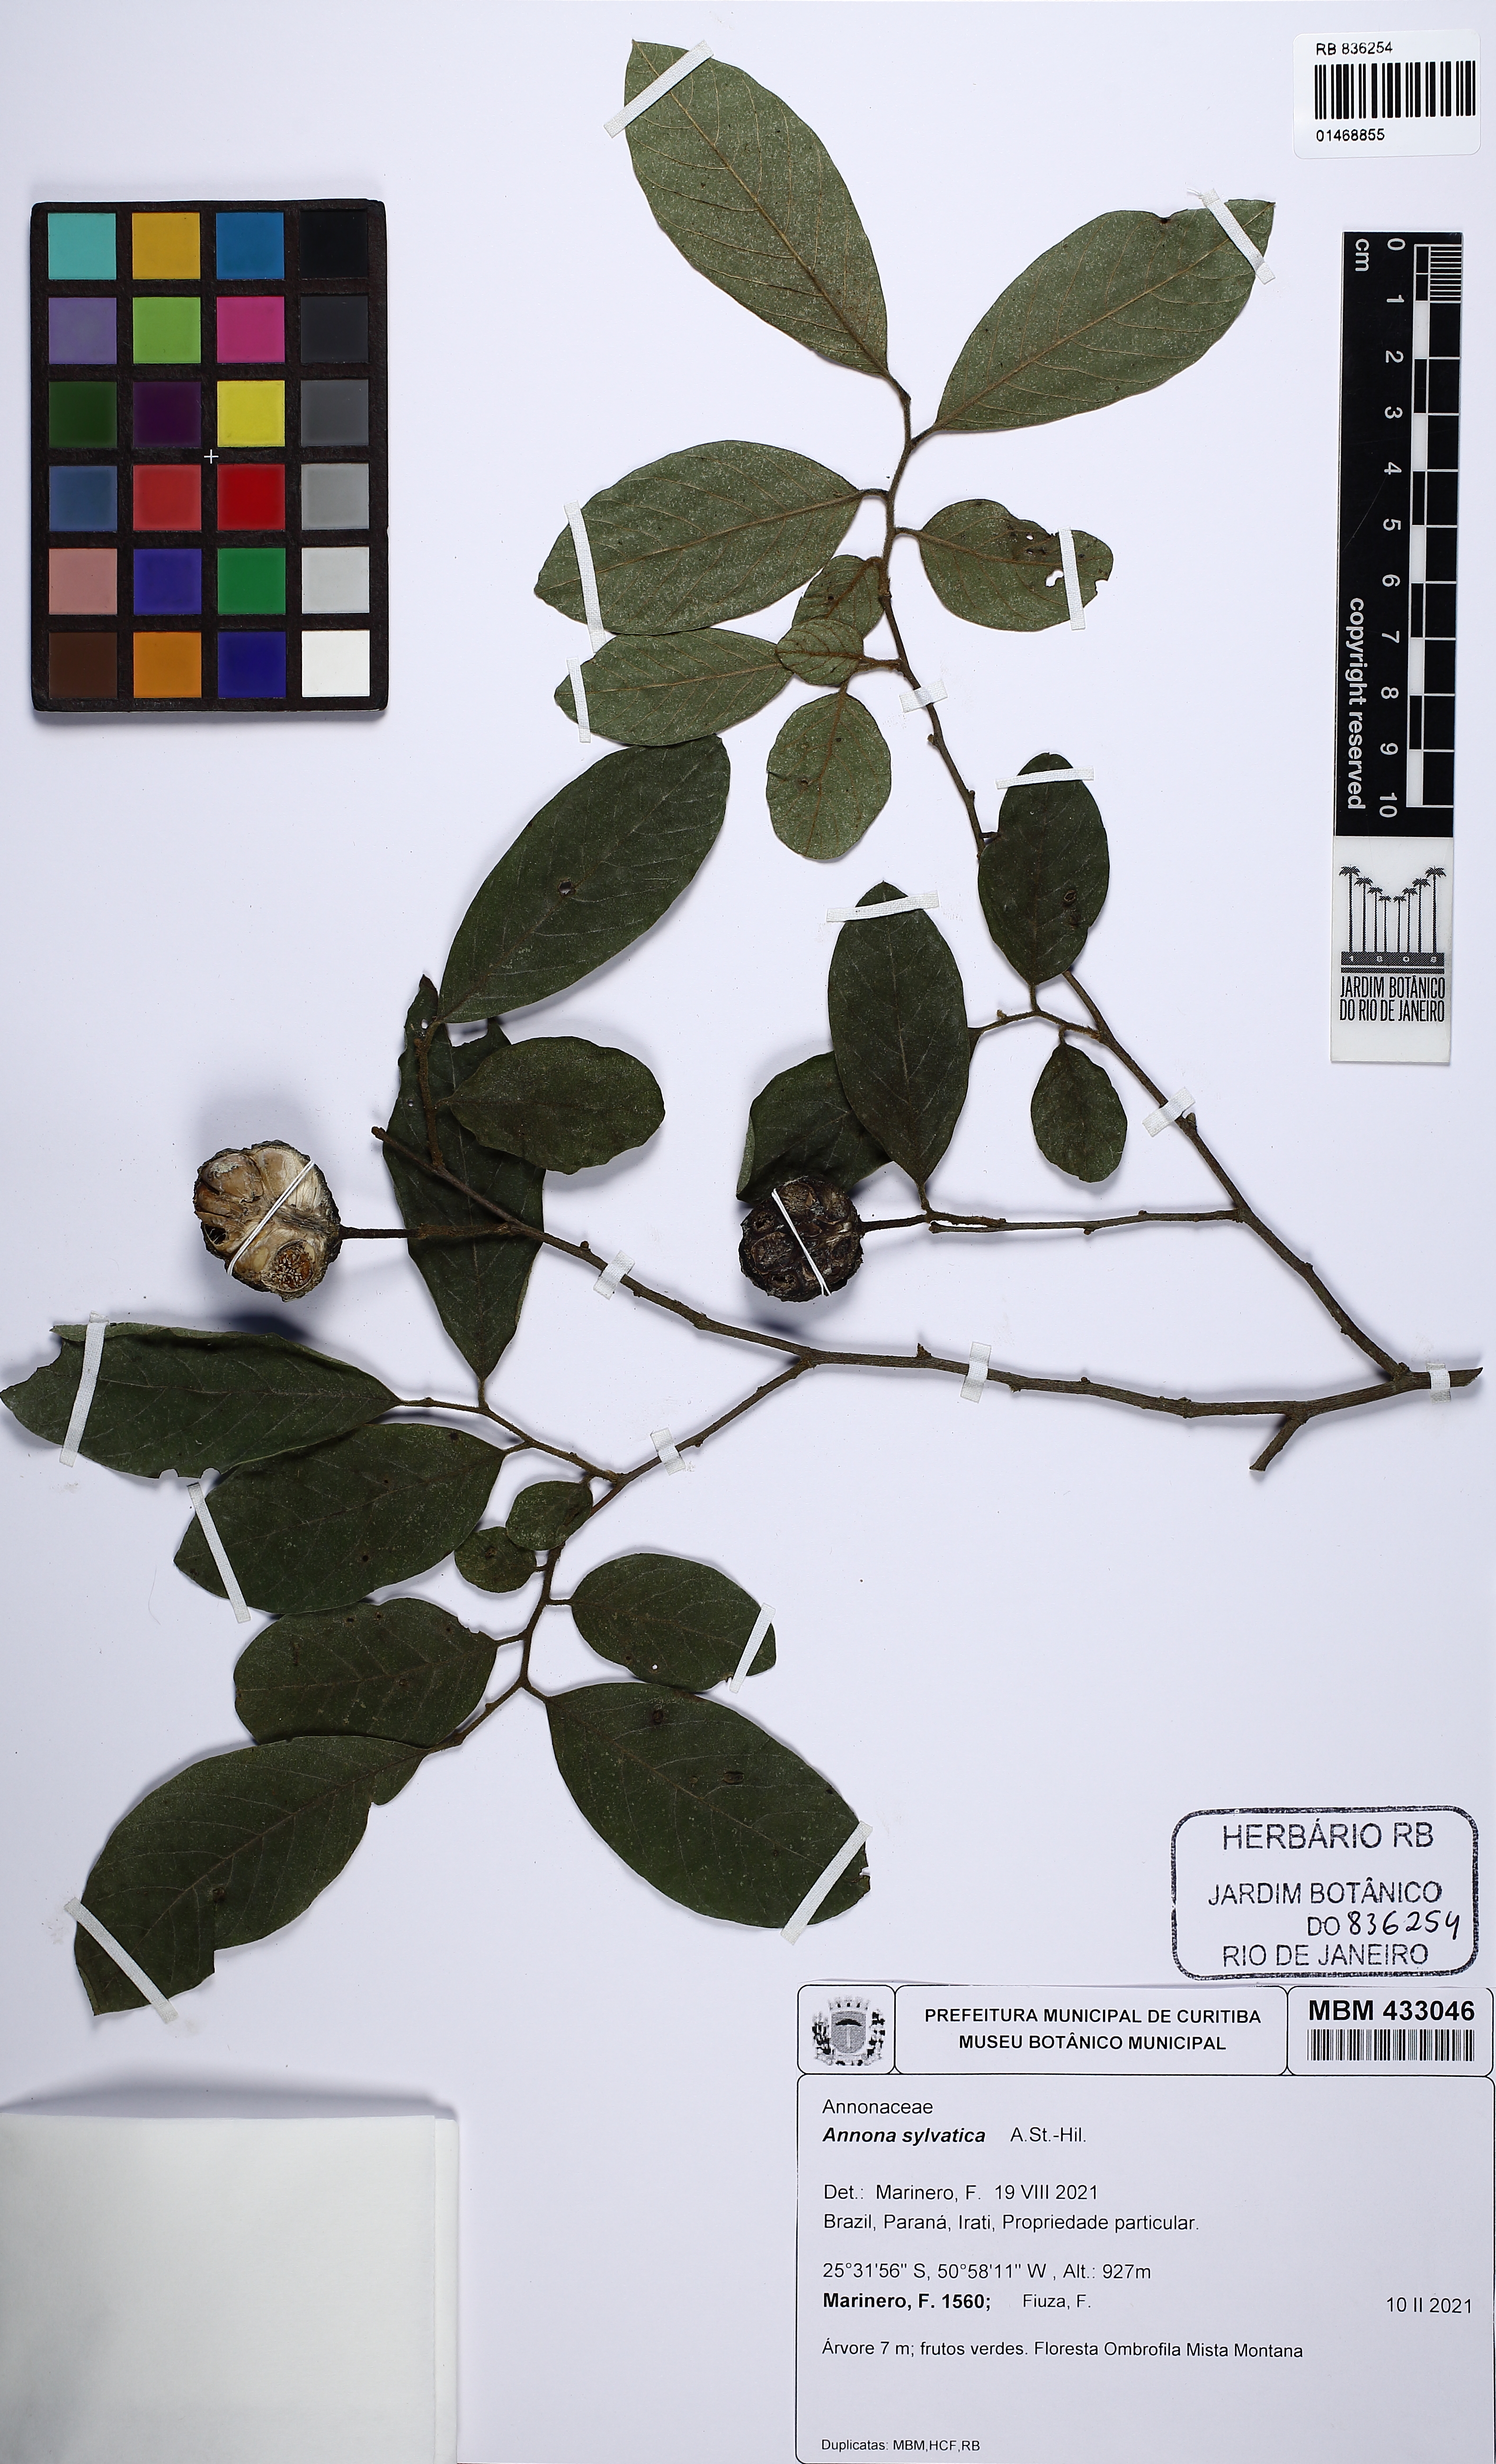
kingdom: Plantae
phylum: Tracheophyta
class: Magnoliopsida
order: Magnoliales
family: Annonaceae
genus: Annona
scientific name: Annona sylvatica
